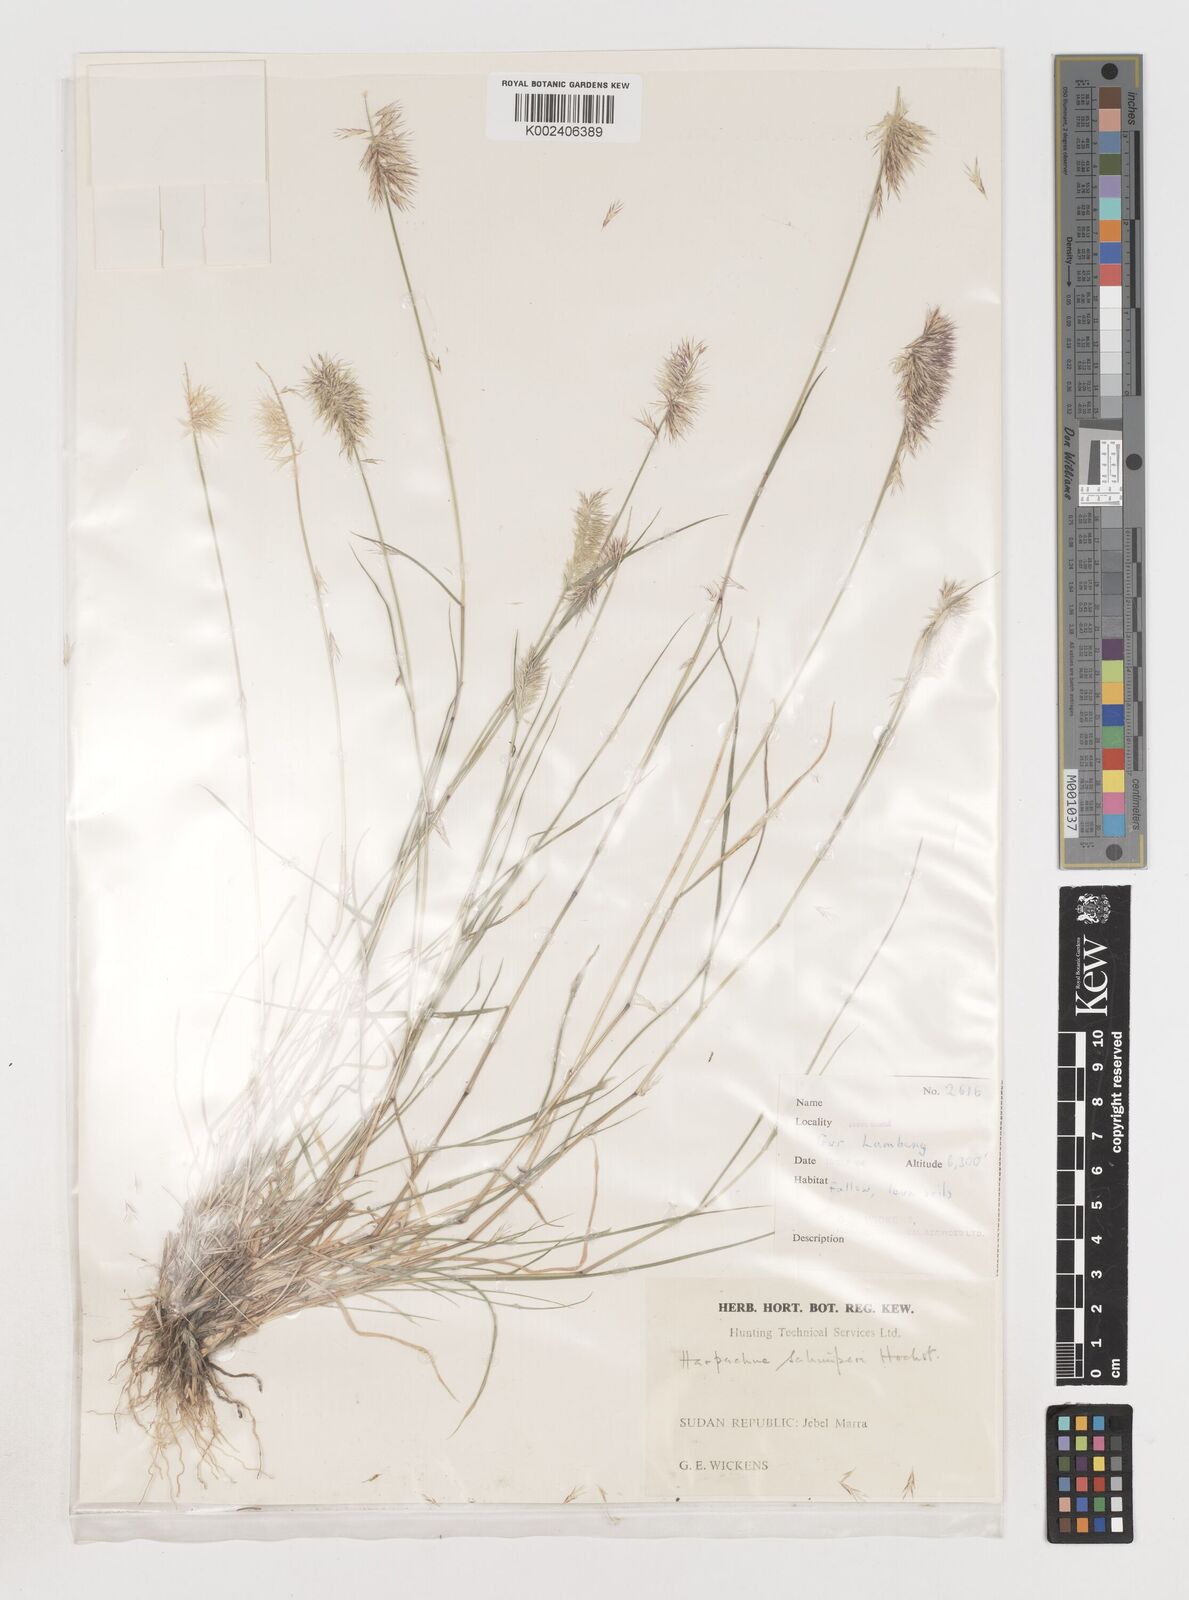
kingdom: Plantae
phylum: Tracheophyta
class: Liliopsida
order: Poales
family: Poaceae
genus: Harpachne
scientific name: Harpachne schimperi
